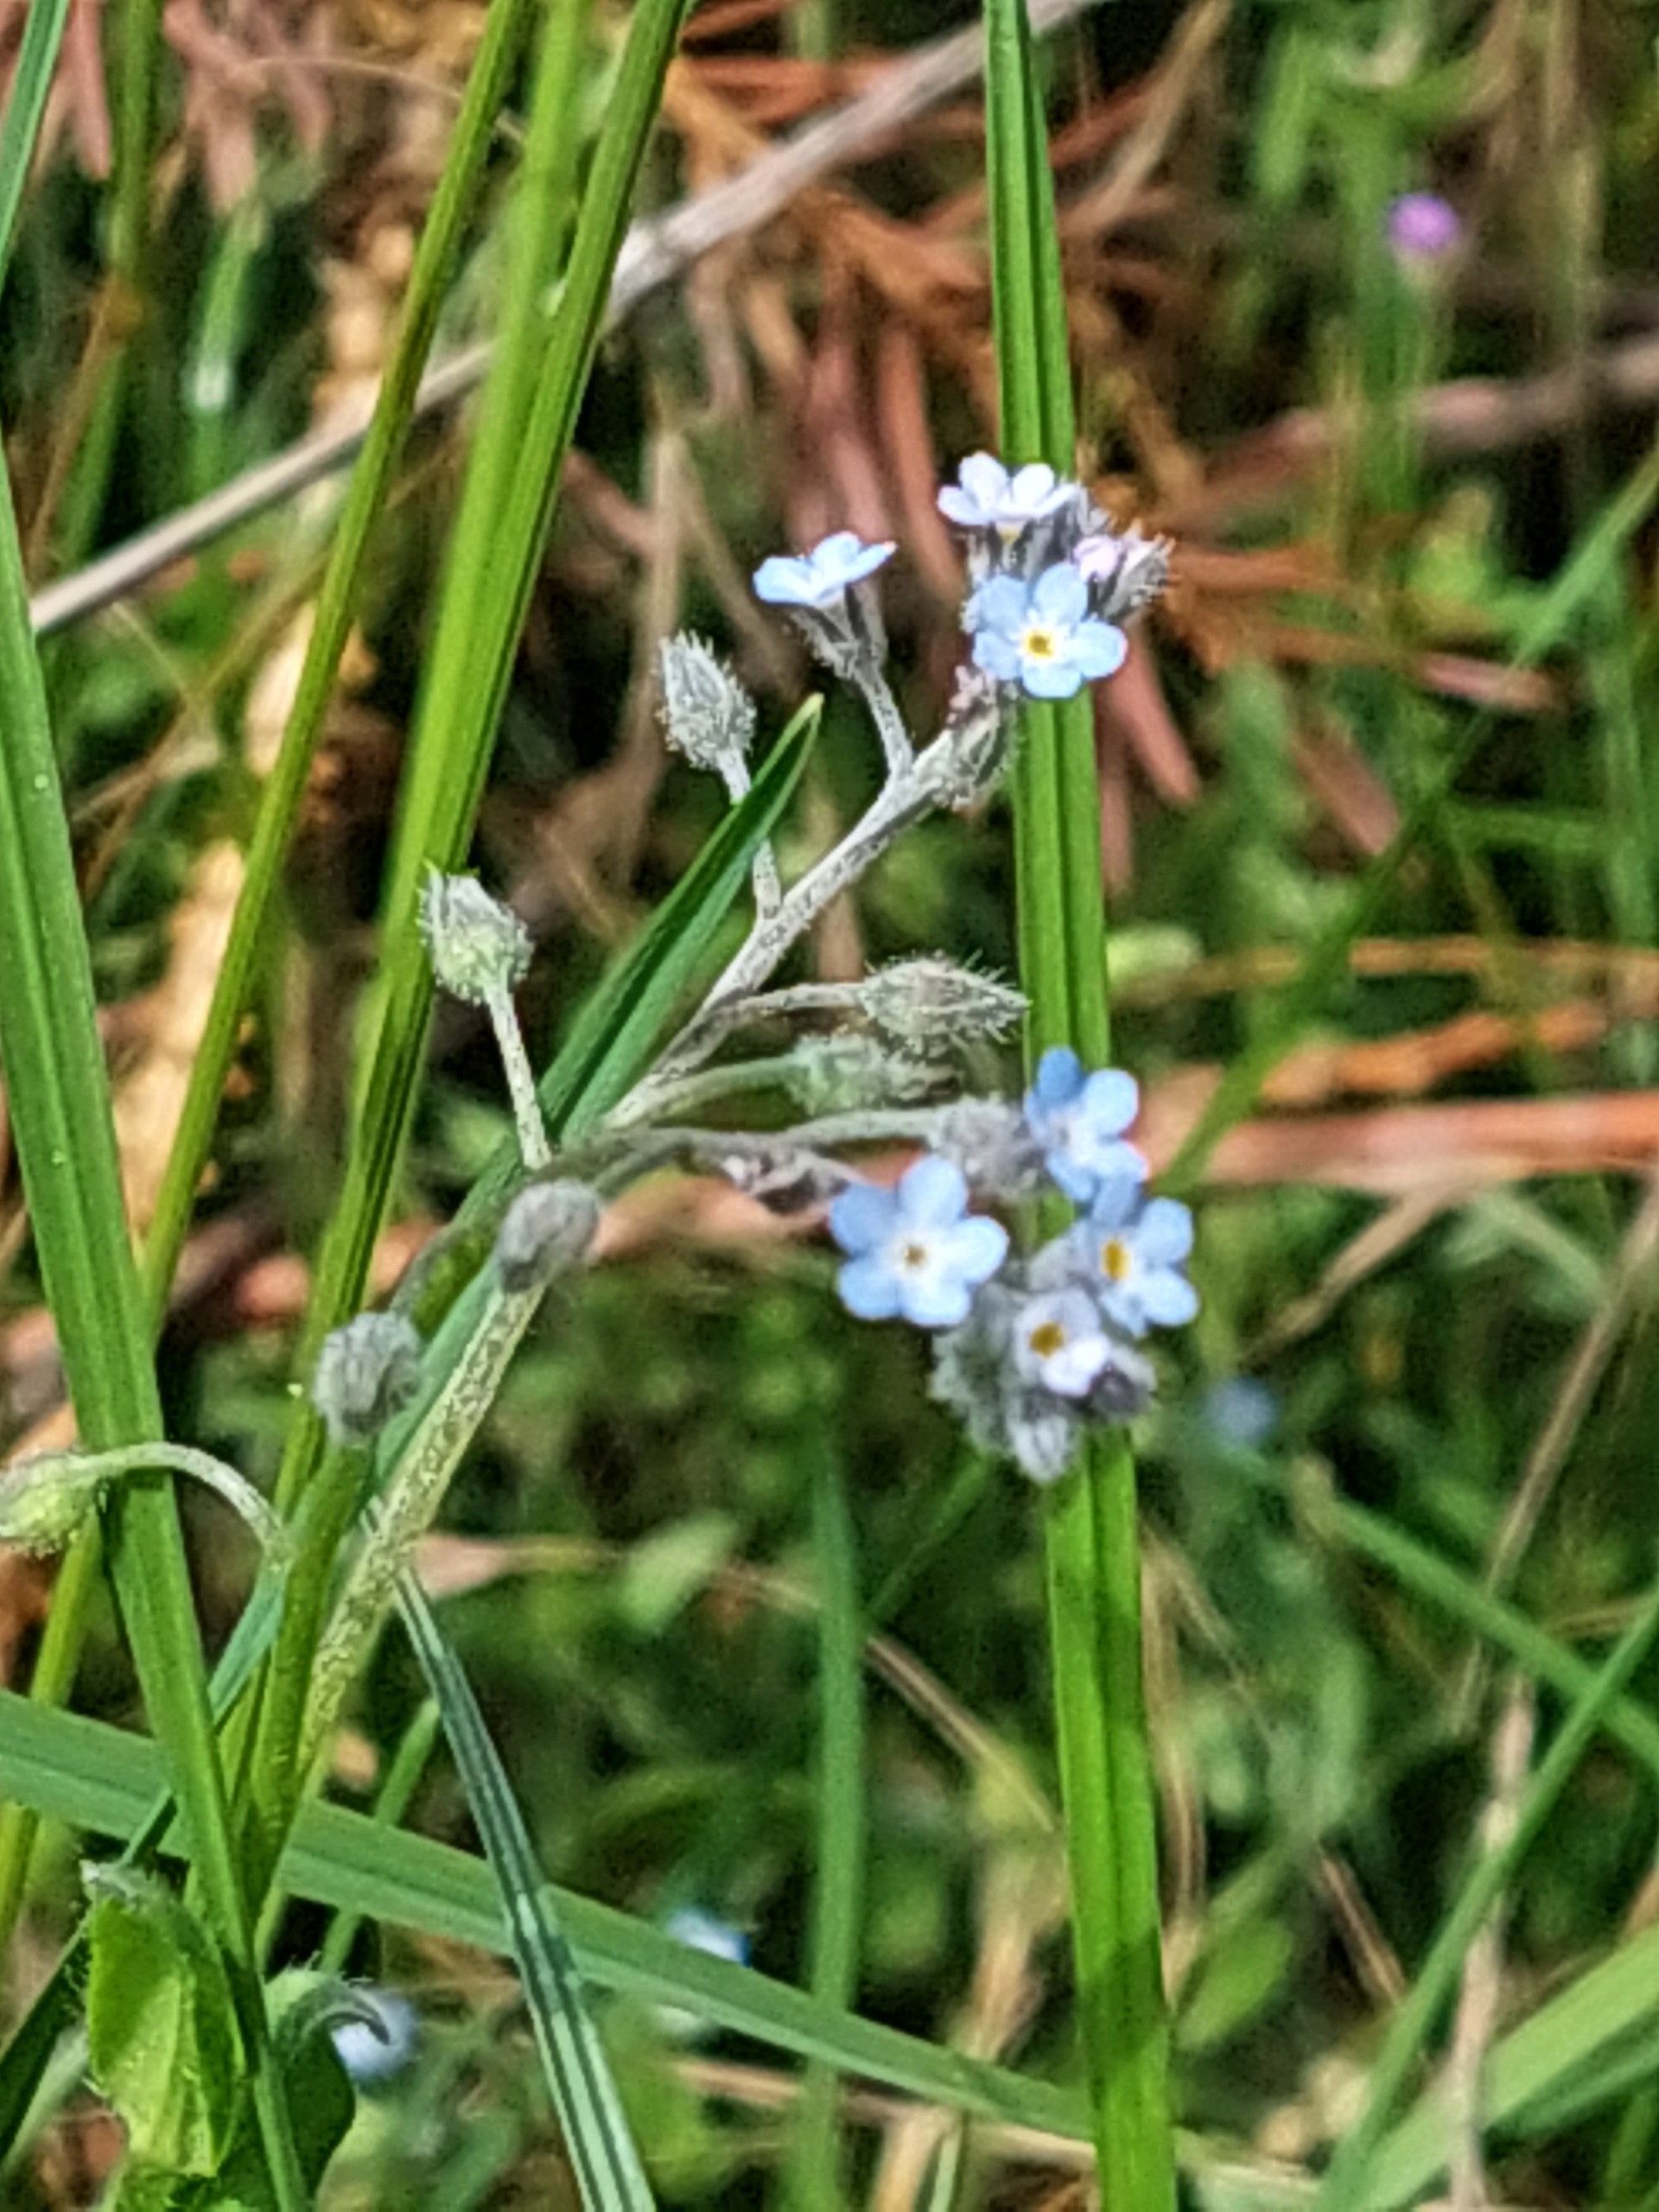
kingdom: Plantae
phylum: Tracheophyta
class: Magnoliopsida
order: Boraginales
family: Boraginaceae
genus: Myosotis
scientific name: Myosotis arvensis
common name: Mark-forglemmigej
